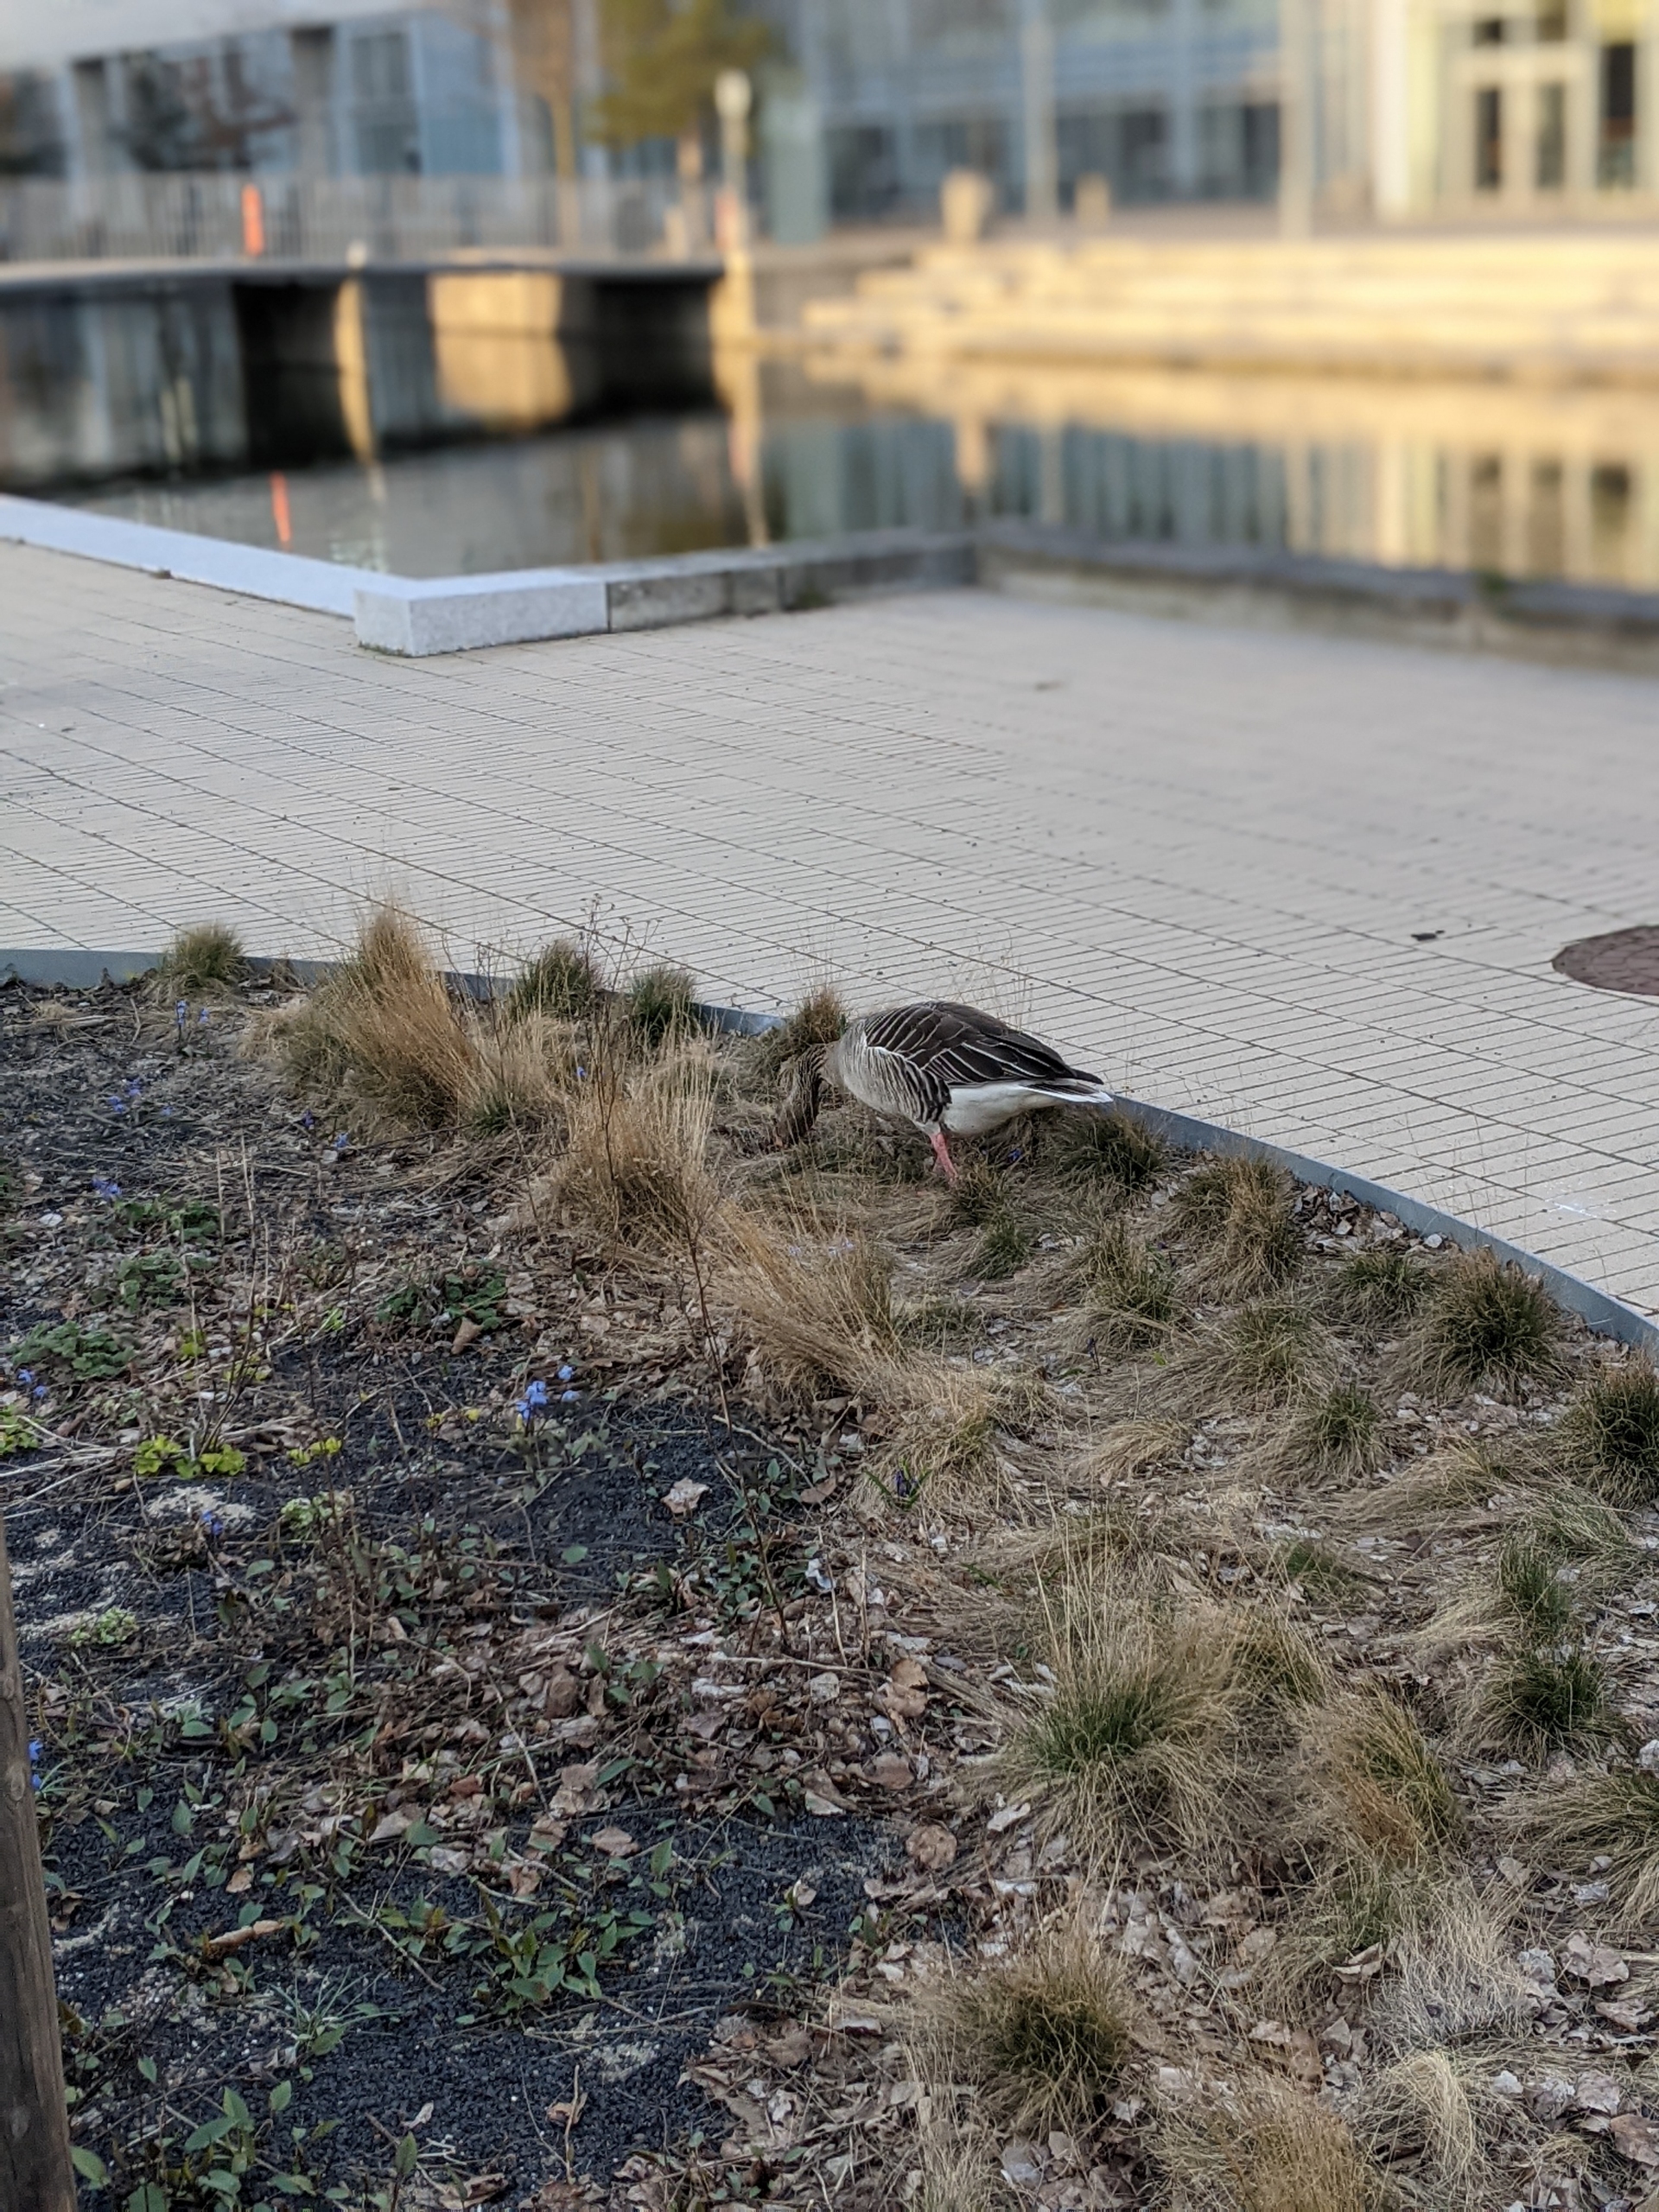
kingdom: Animalia
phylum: Chordata
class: Aves
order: Anseriformes
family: Anatidae
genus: Anser
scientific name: Anser anser
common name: Grågås
